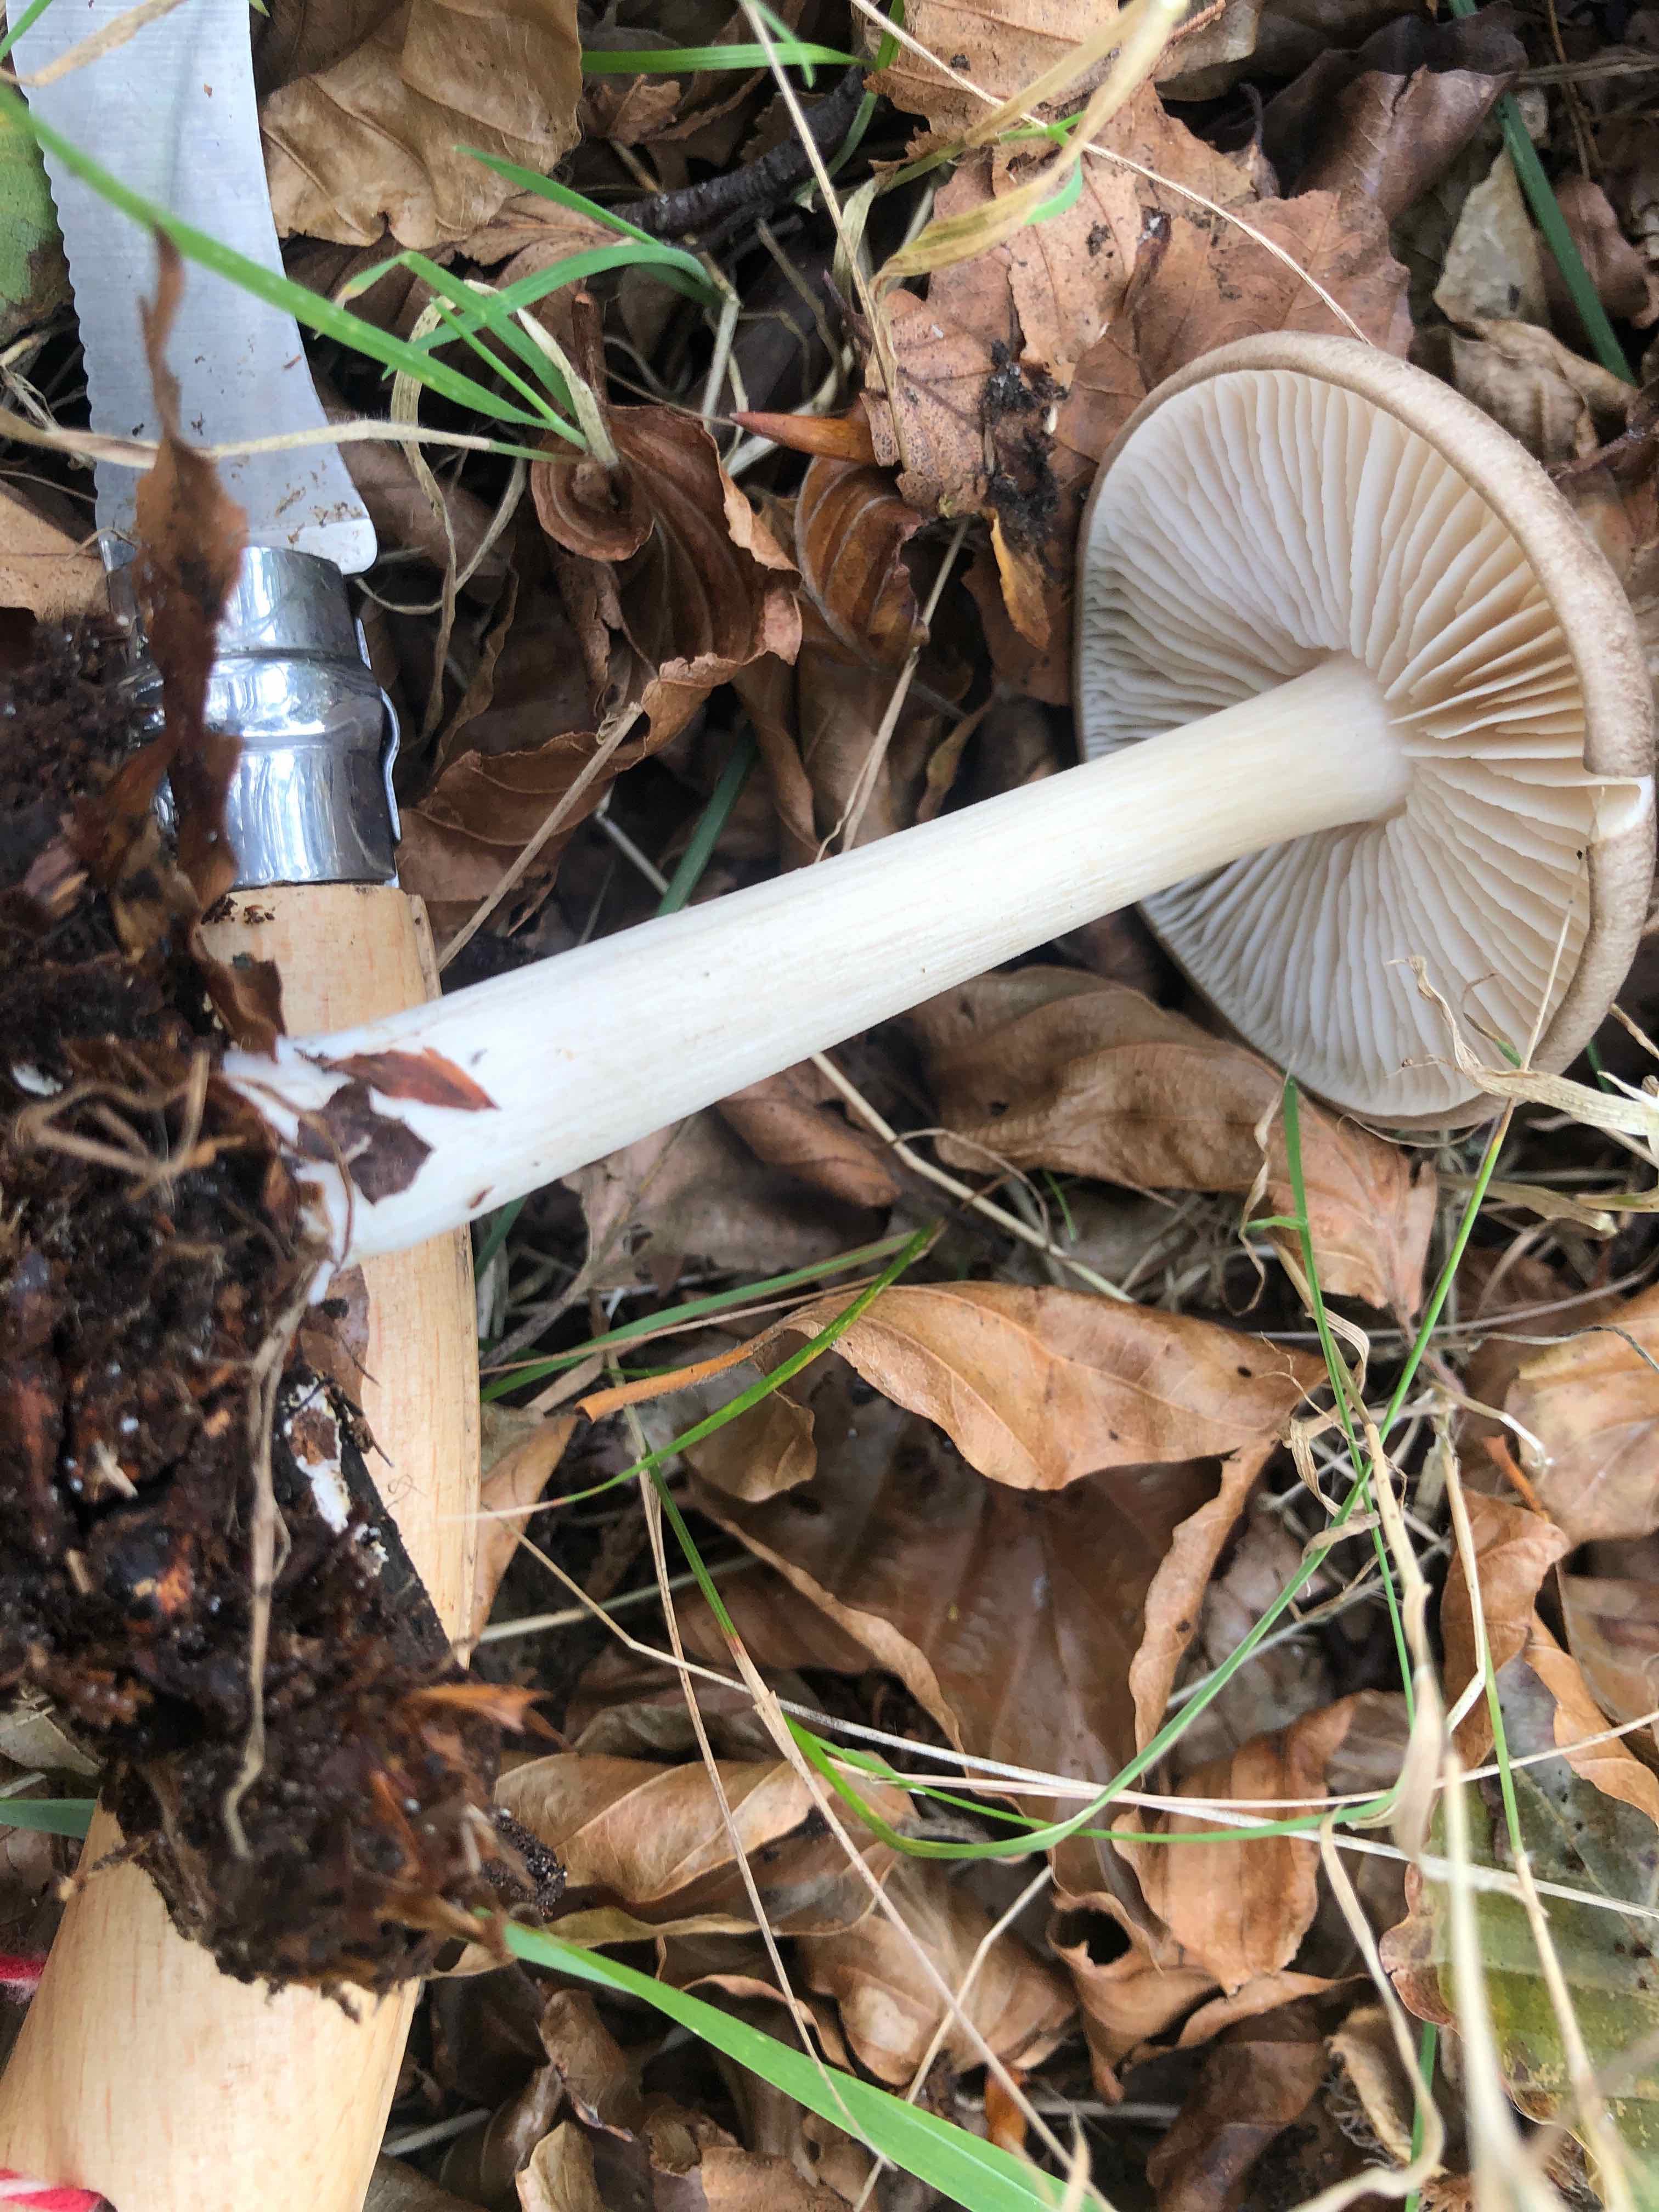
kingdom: Fungi
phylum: Basidiomycota
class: Agaricomycetes
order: Agaricales
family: Tricholomataceae
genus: Megacollybia
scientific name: Megacollybia platyphylla
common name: bredbladet væbnerhat
